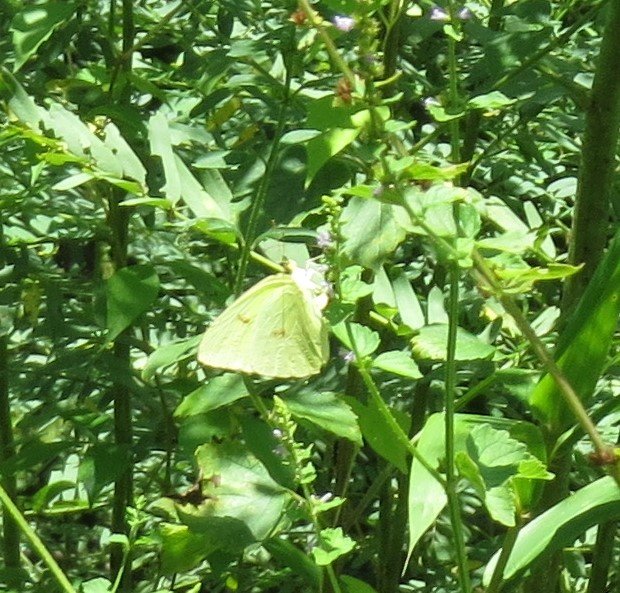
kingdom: Animalia
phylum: Arthropoda
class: Insecta
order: Lepidoptera
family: Pieridae
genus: Phoebis
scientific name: Phoebis sennae
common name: Cloudless Sulphur
